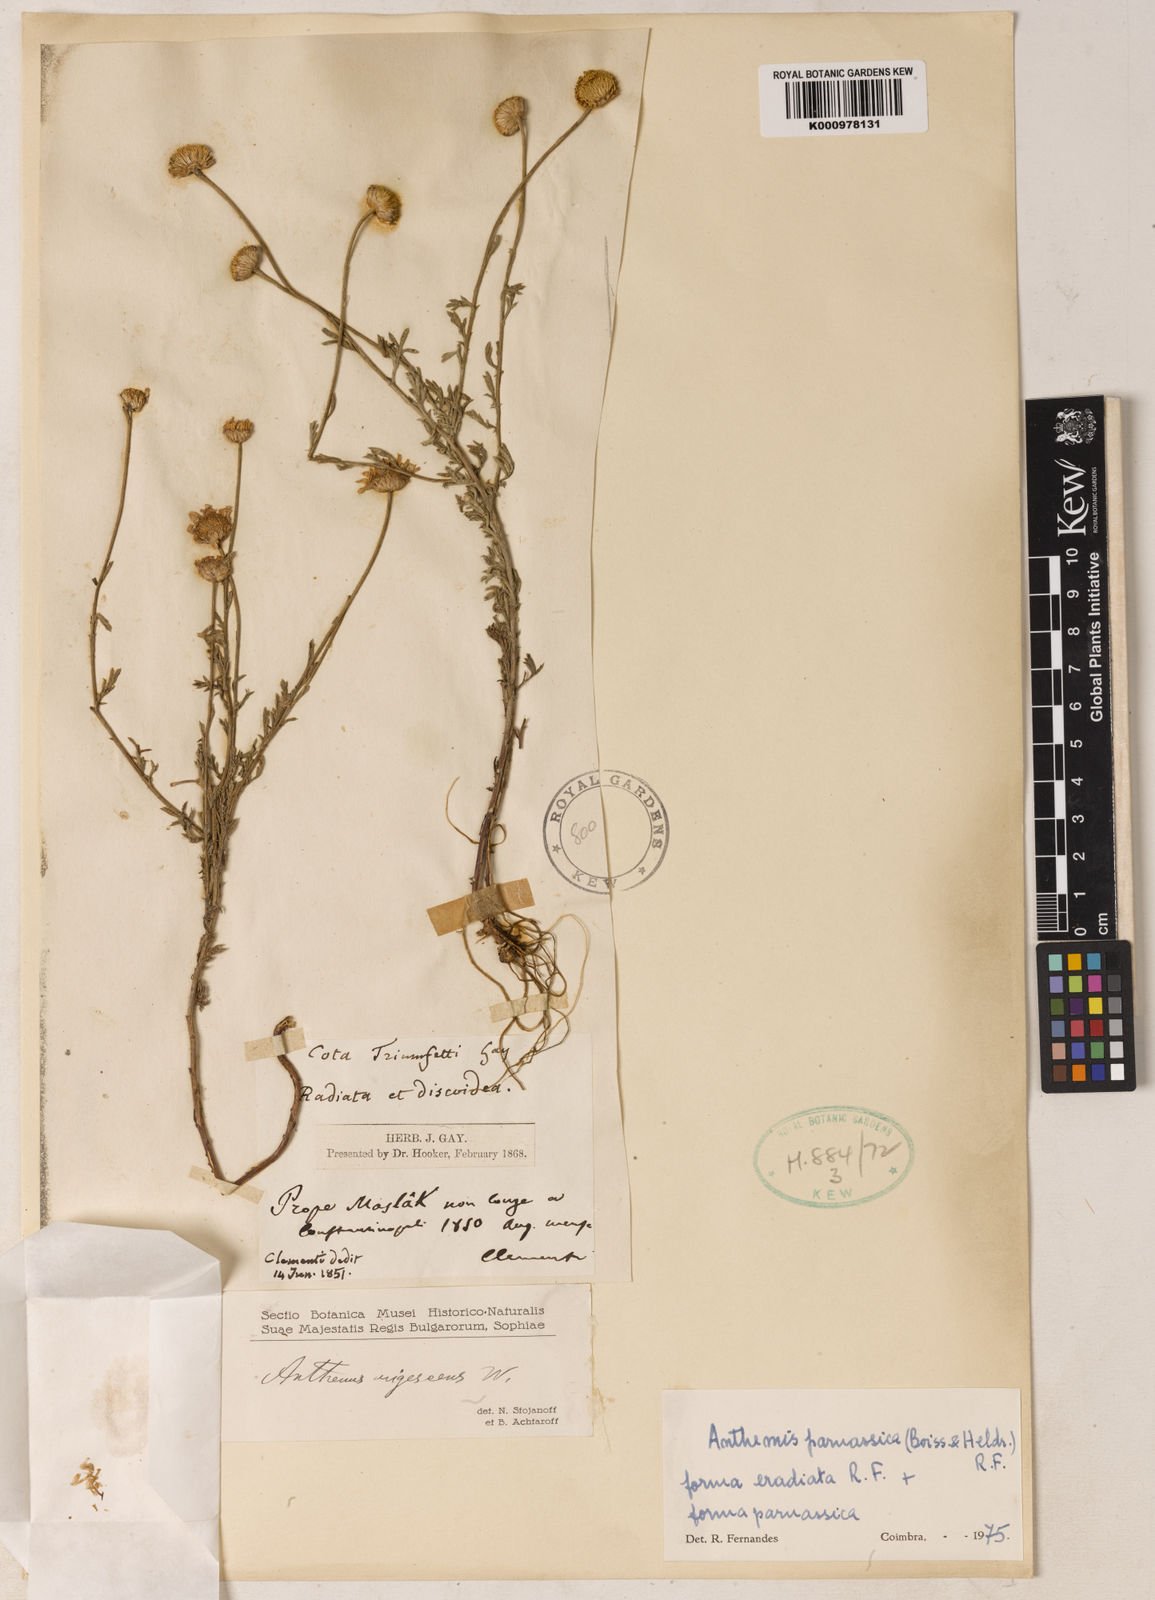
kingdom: Plantae
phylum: Tracheophyta
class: Magnoliopsida
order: Asterales
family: Asteraceae
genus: Cota
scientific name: Cota macrantha
